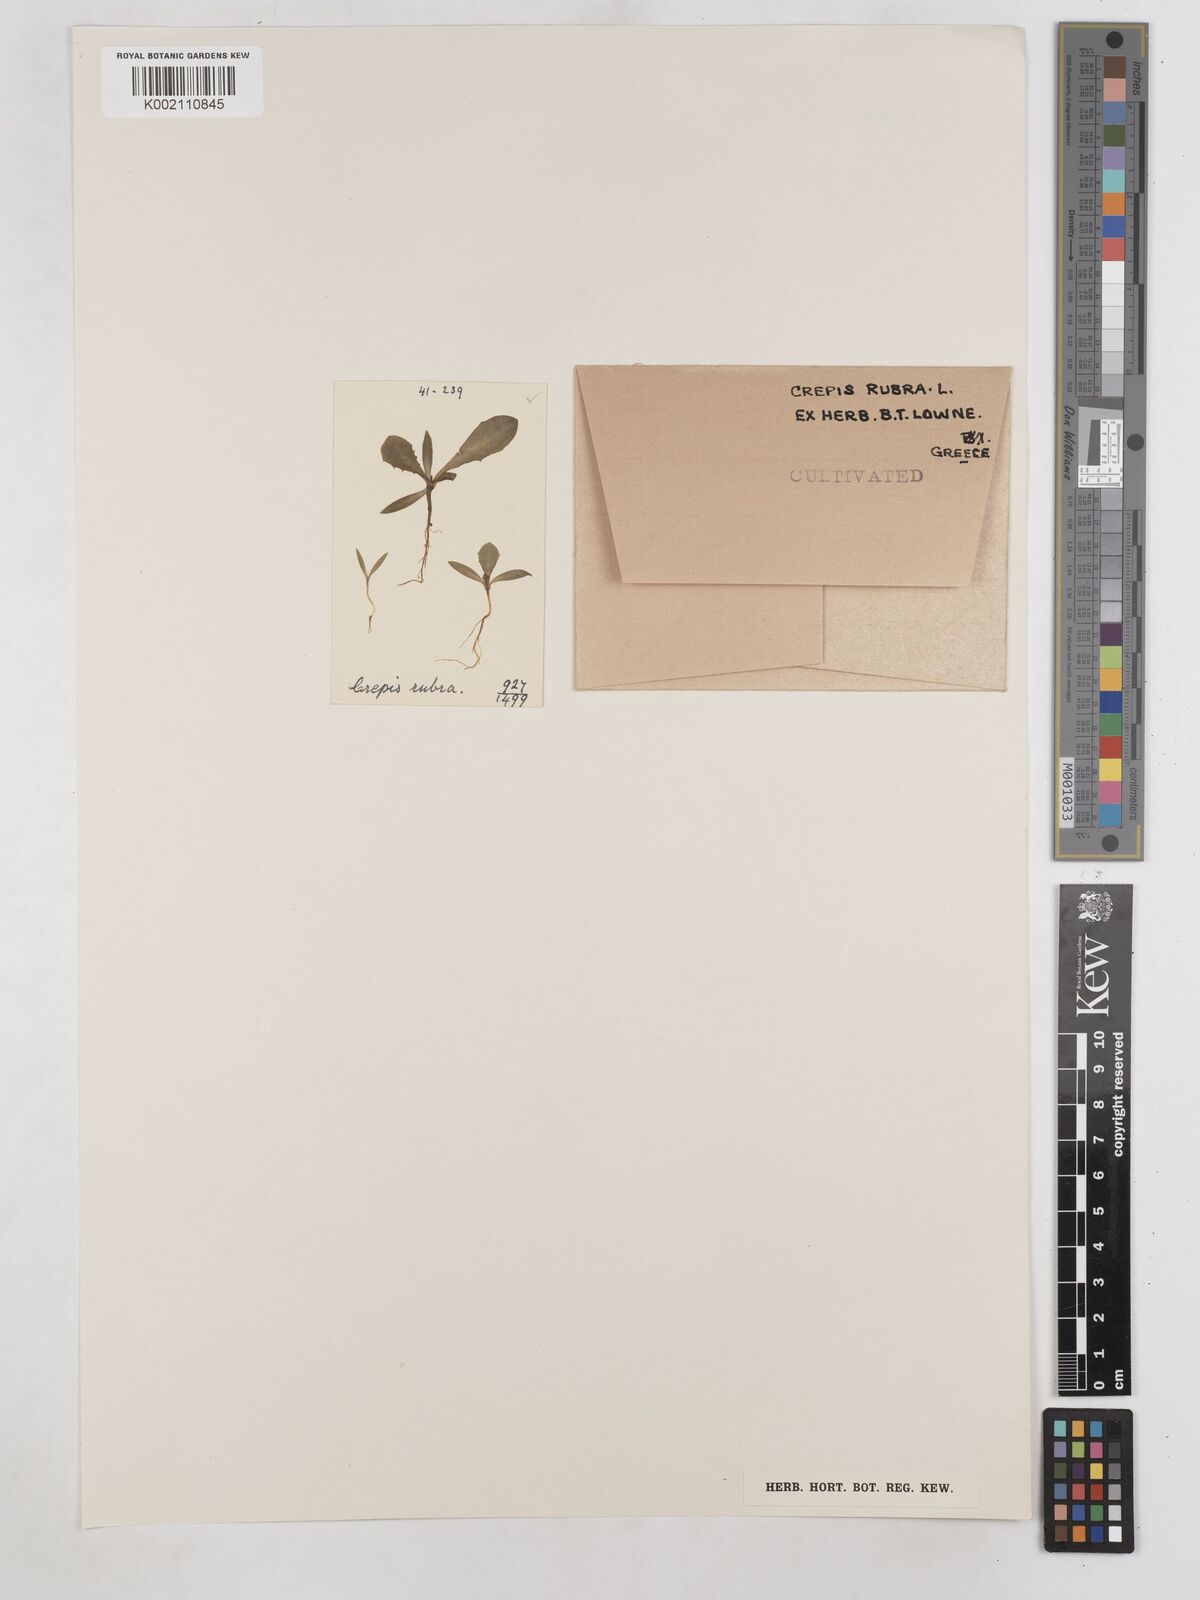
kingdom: Plantae
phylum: Tracheophyta
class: Magnoliopsida
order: Asterales
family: Asteraceae
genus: Crepis
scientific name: Crepis rubra
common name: Pink hawk's-beard
